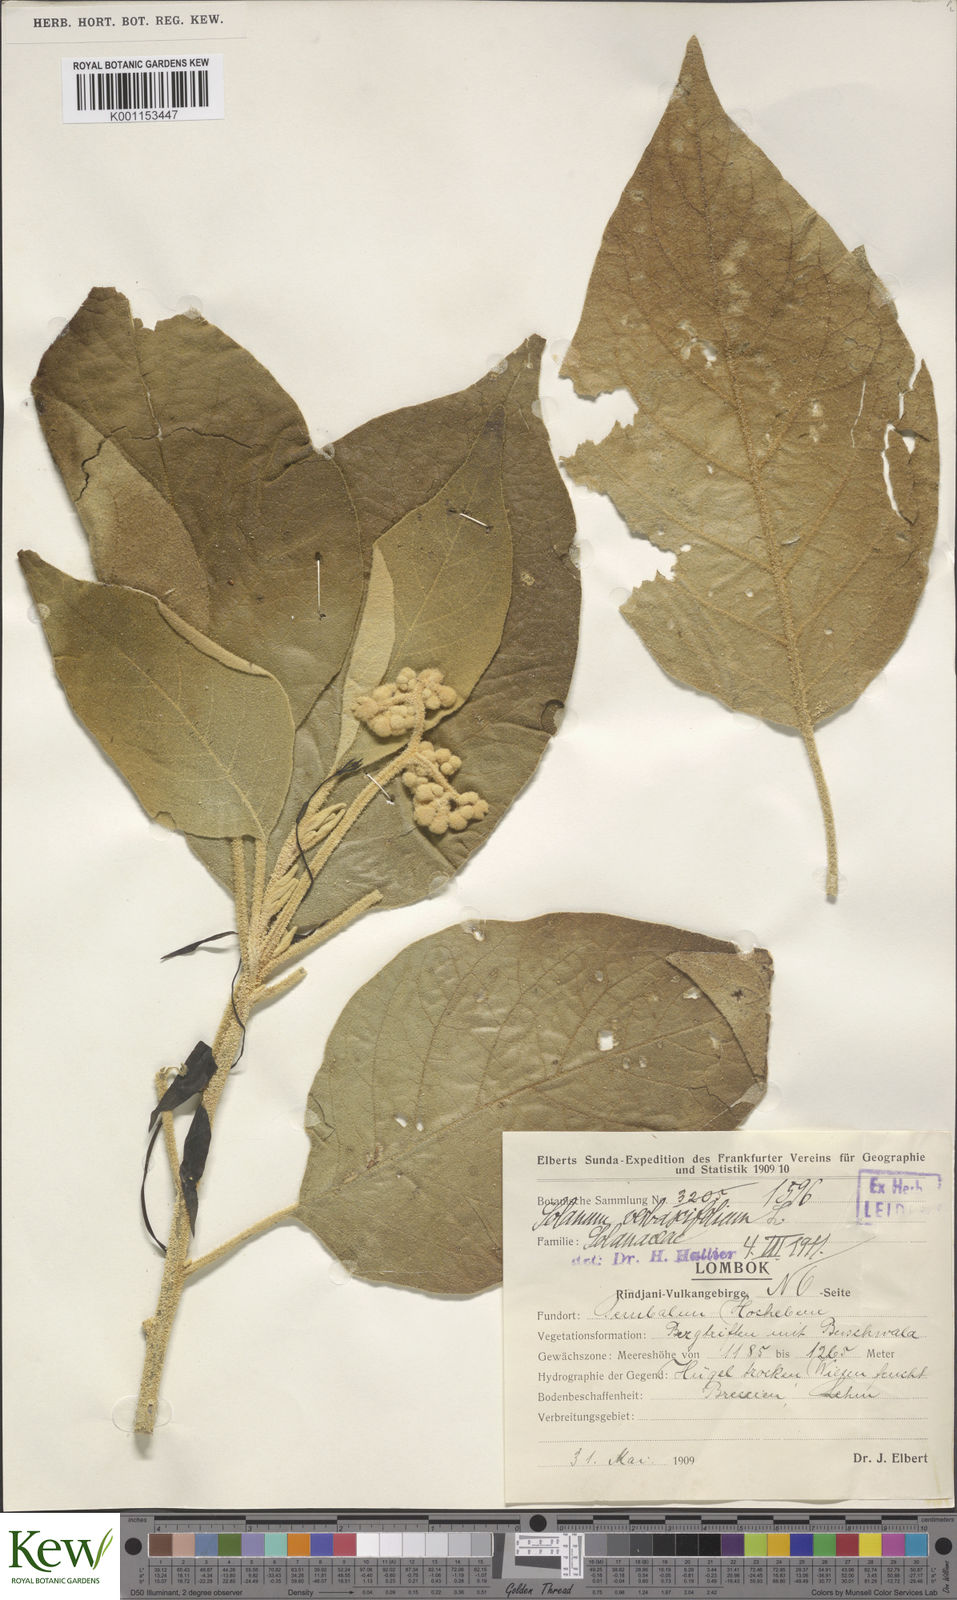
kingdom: Plantae
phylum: Tracheophyta
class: Magnoliopsida
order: Solanales
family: Solanaceae
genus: Solanum
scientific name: Solanum erianthum
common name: Tobacco-tree
